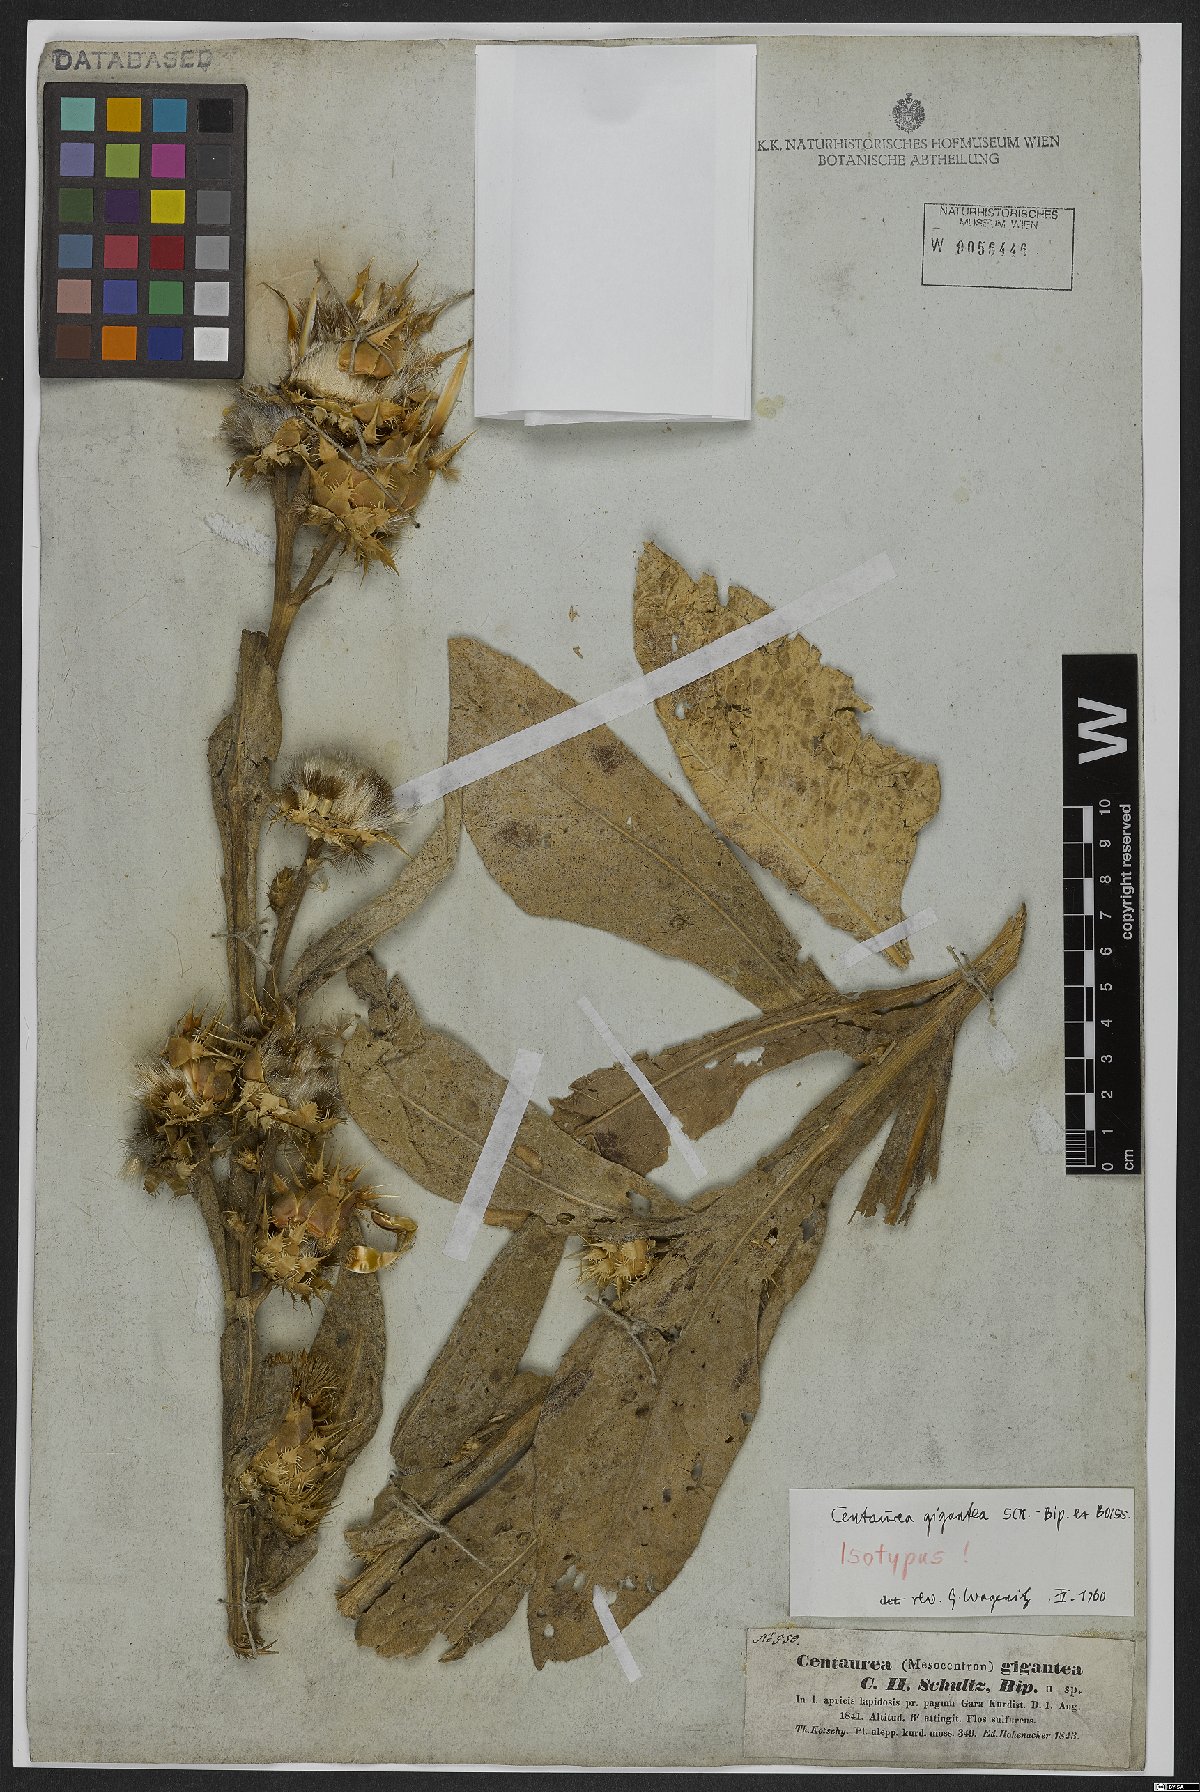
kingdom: Plantae
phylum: Tracheophyta
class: Magnoliopsida
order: Asterales
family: Asteraceae
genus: Centaurea
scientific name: Centaurea gigantea
